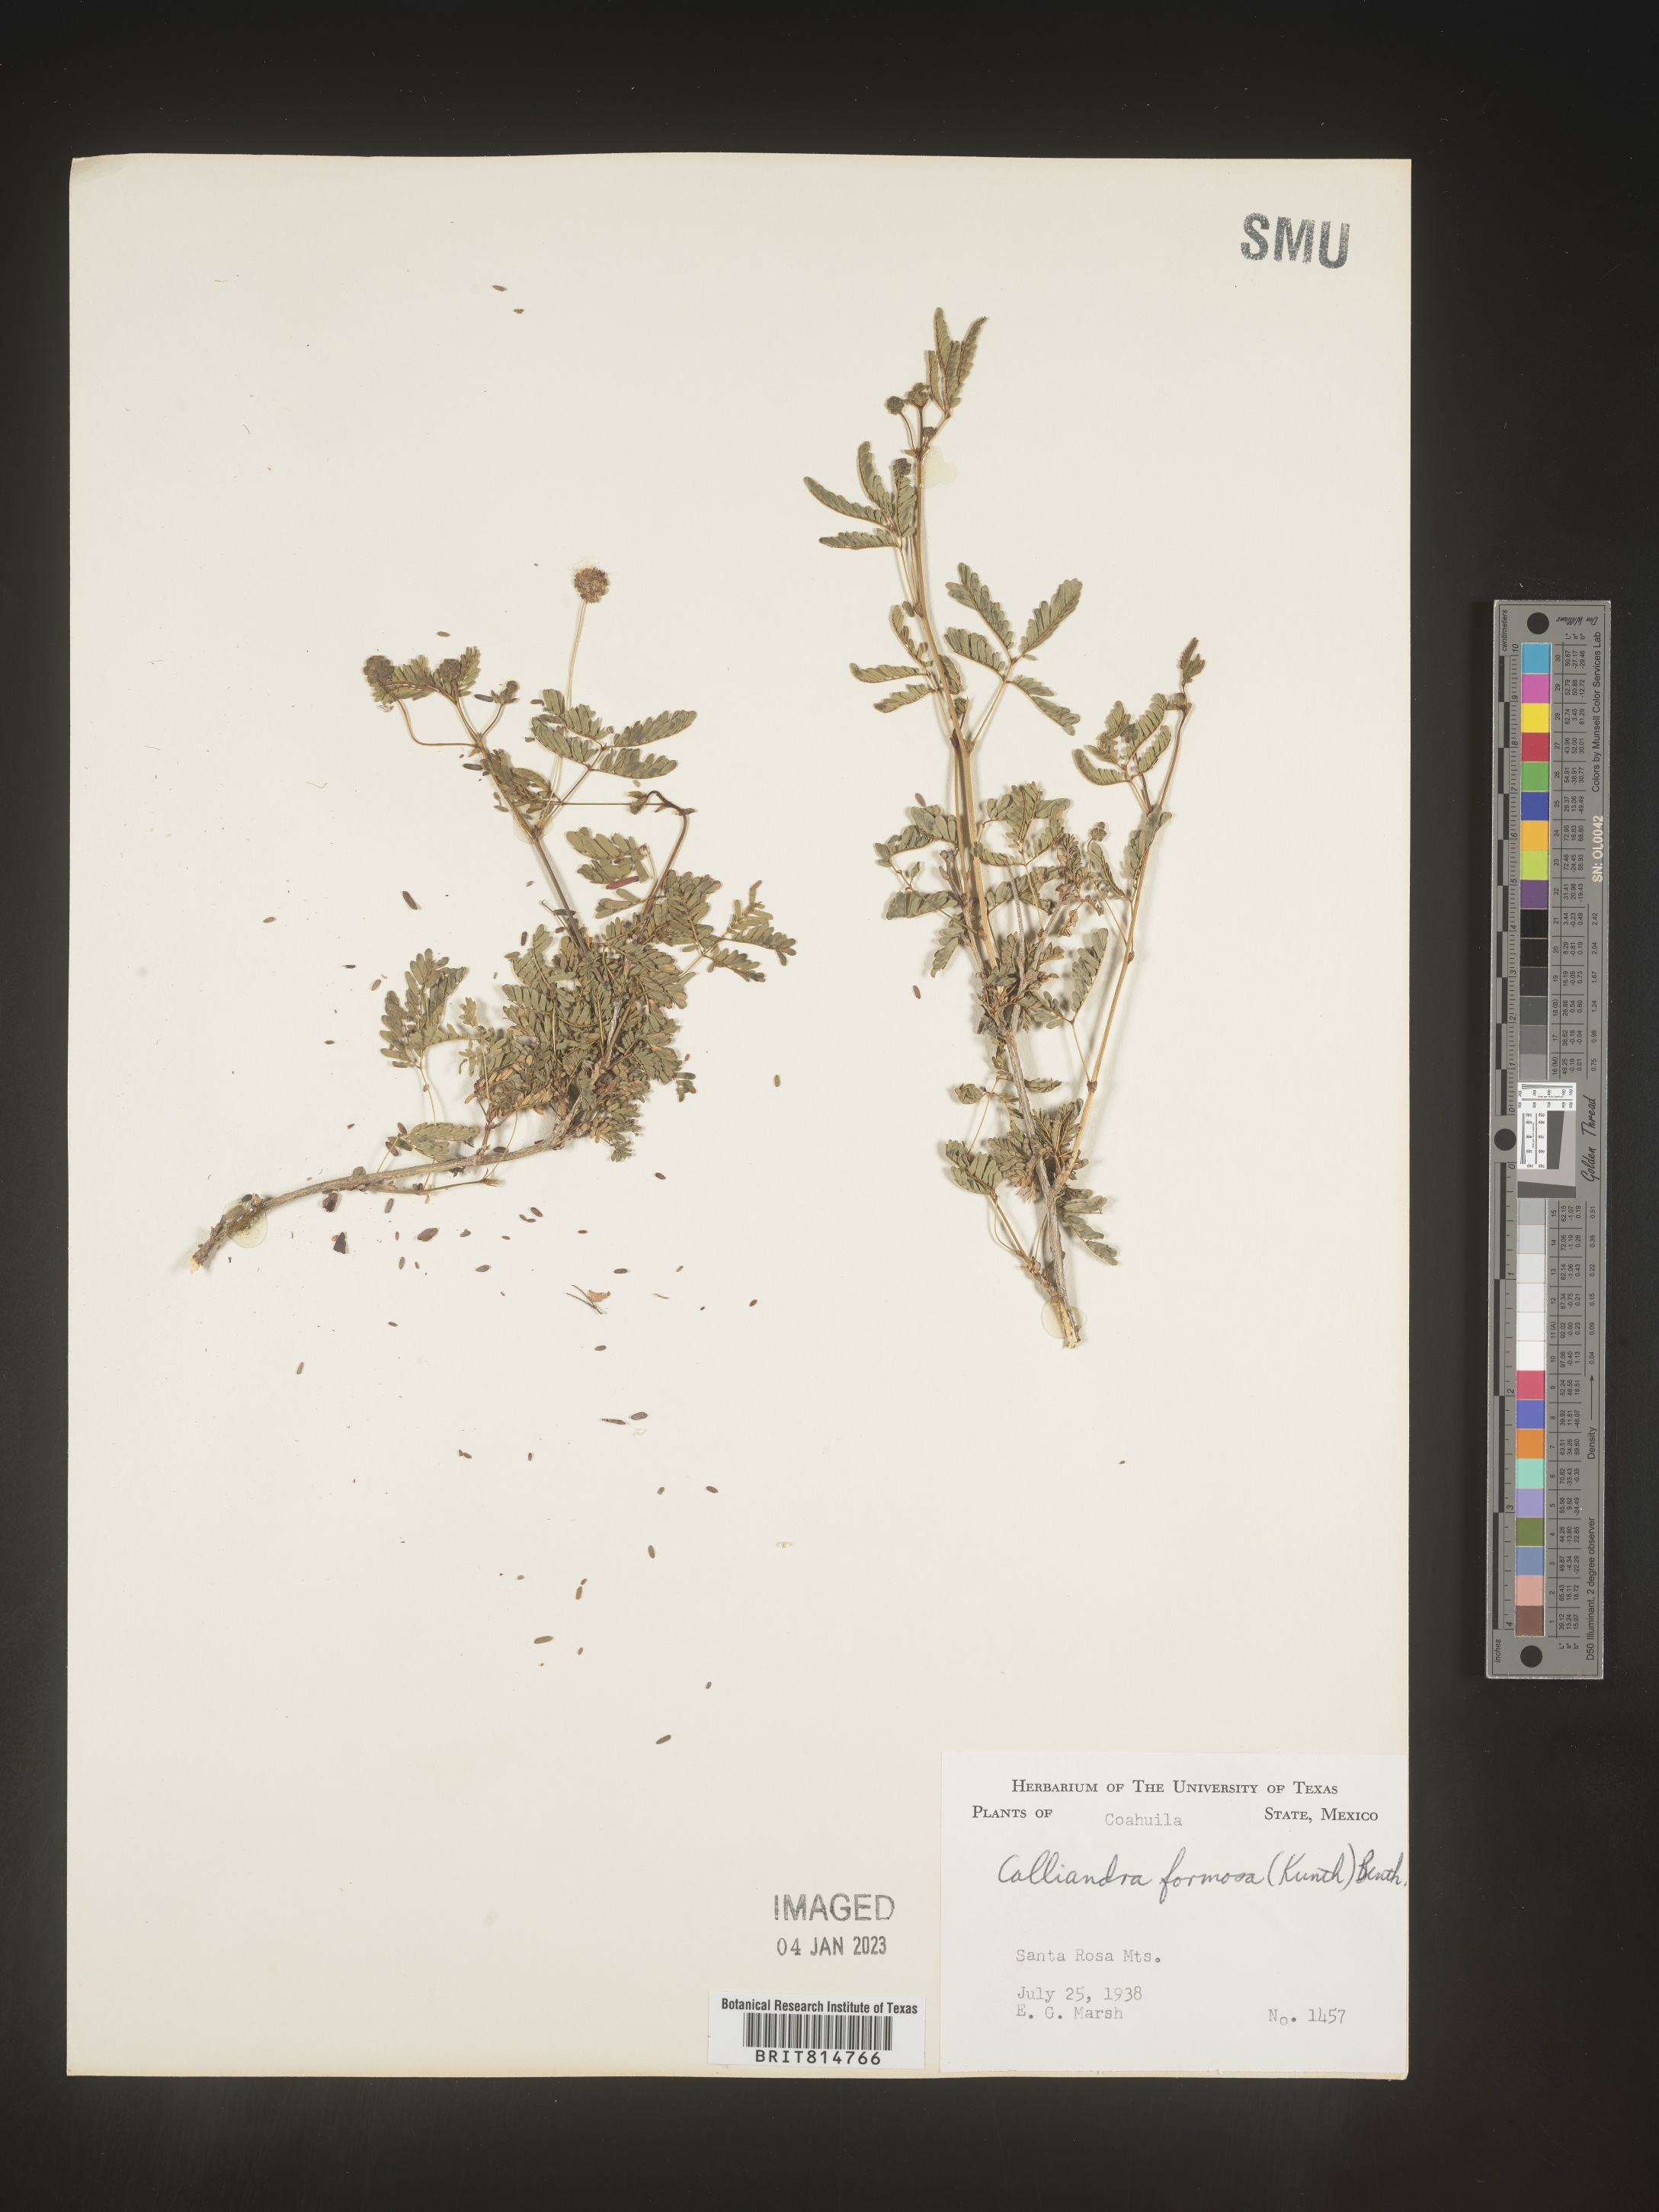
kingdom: Plantae
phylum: Tracheophyta
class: Magnoliopsida
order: Fabales
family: Fabaceae
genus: Calliandra
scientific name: Calliandra
